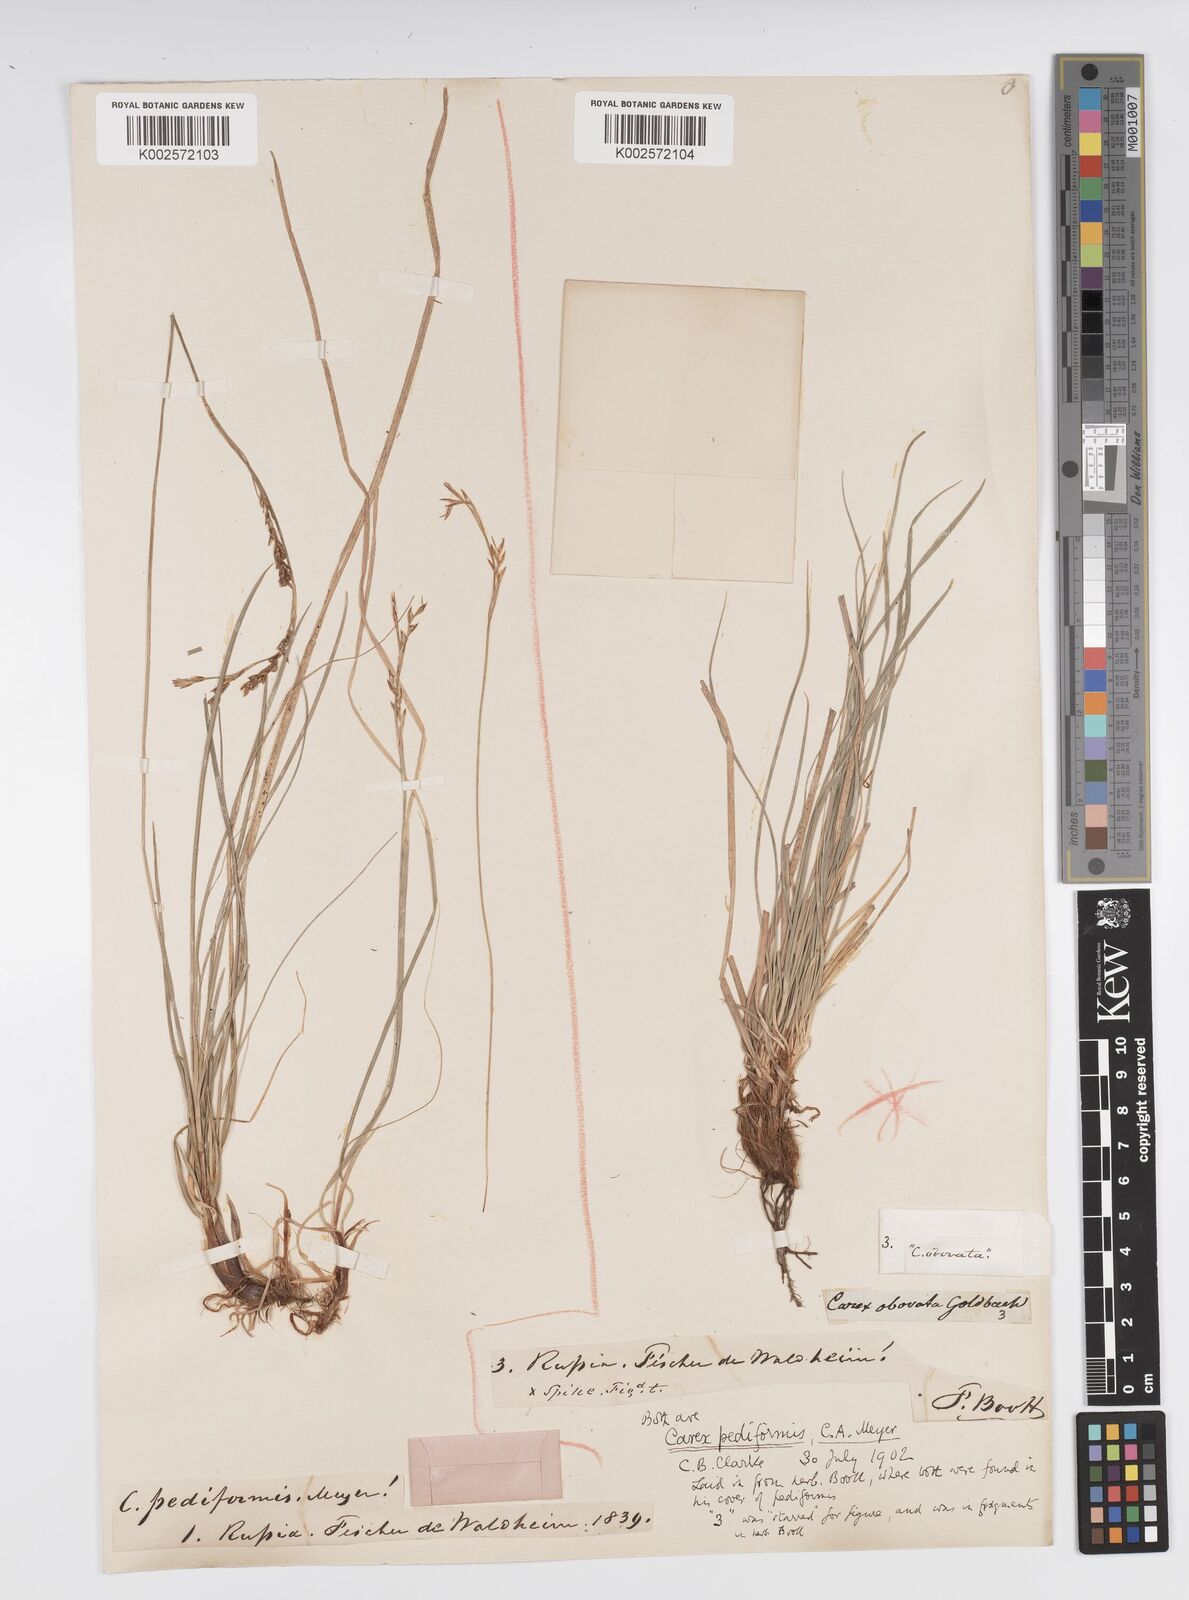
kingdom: Plantae
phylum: Tracheophyta
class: Liliopsida
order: Poales
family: Cyperaceae
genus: Carex
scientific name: Carex pediformis
